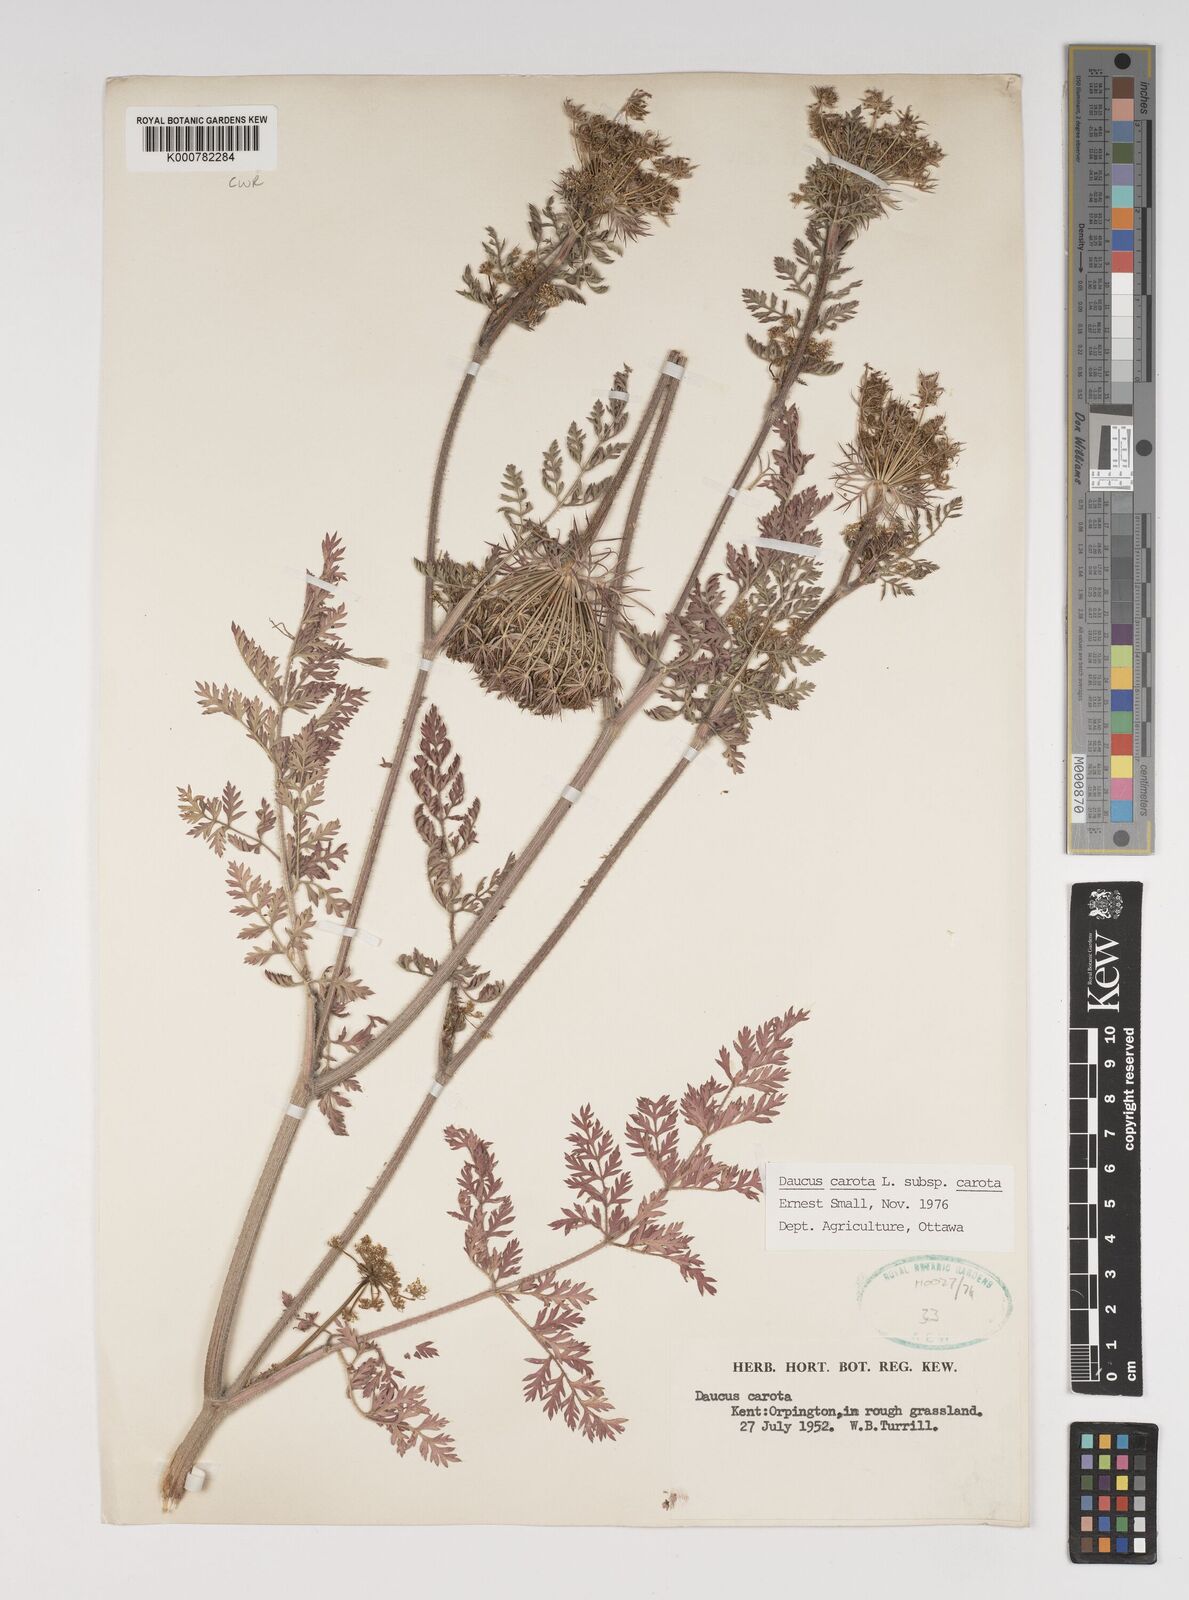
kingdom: Plantae
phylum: Tracheophyta
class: Magnoliopsida
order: Apiales
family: Apiaceae
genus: Daucus
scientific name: Daucus carota
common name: Wild carrot
